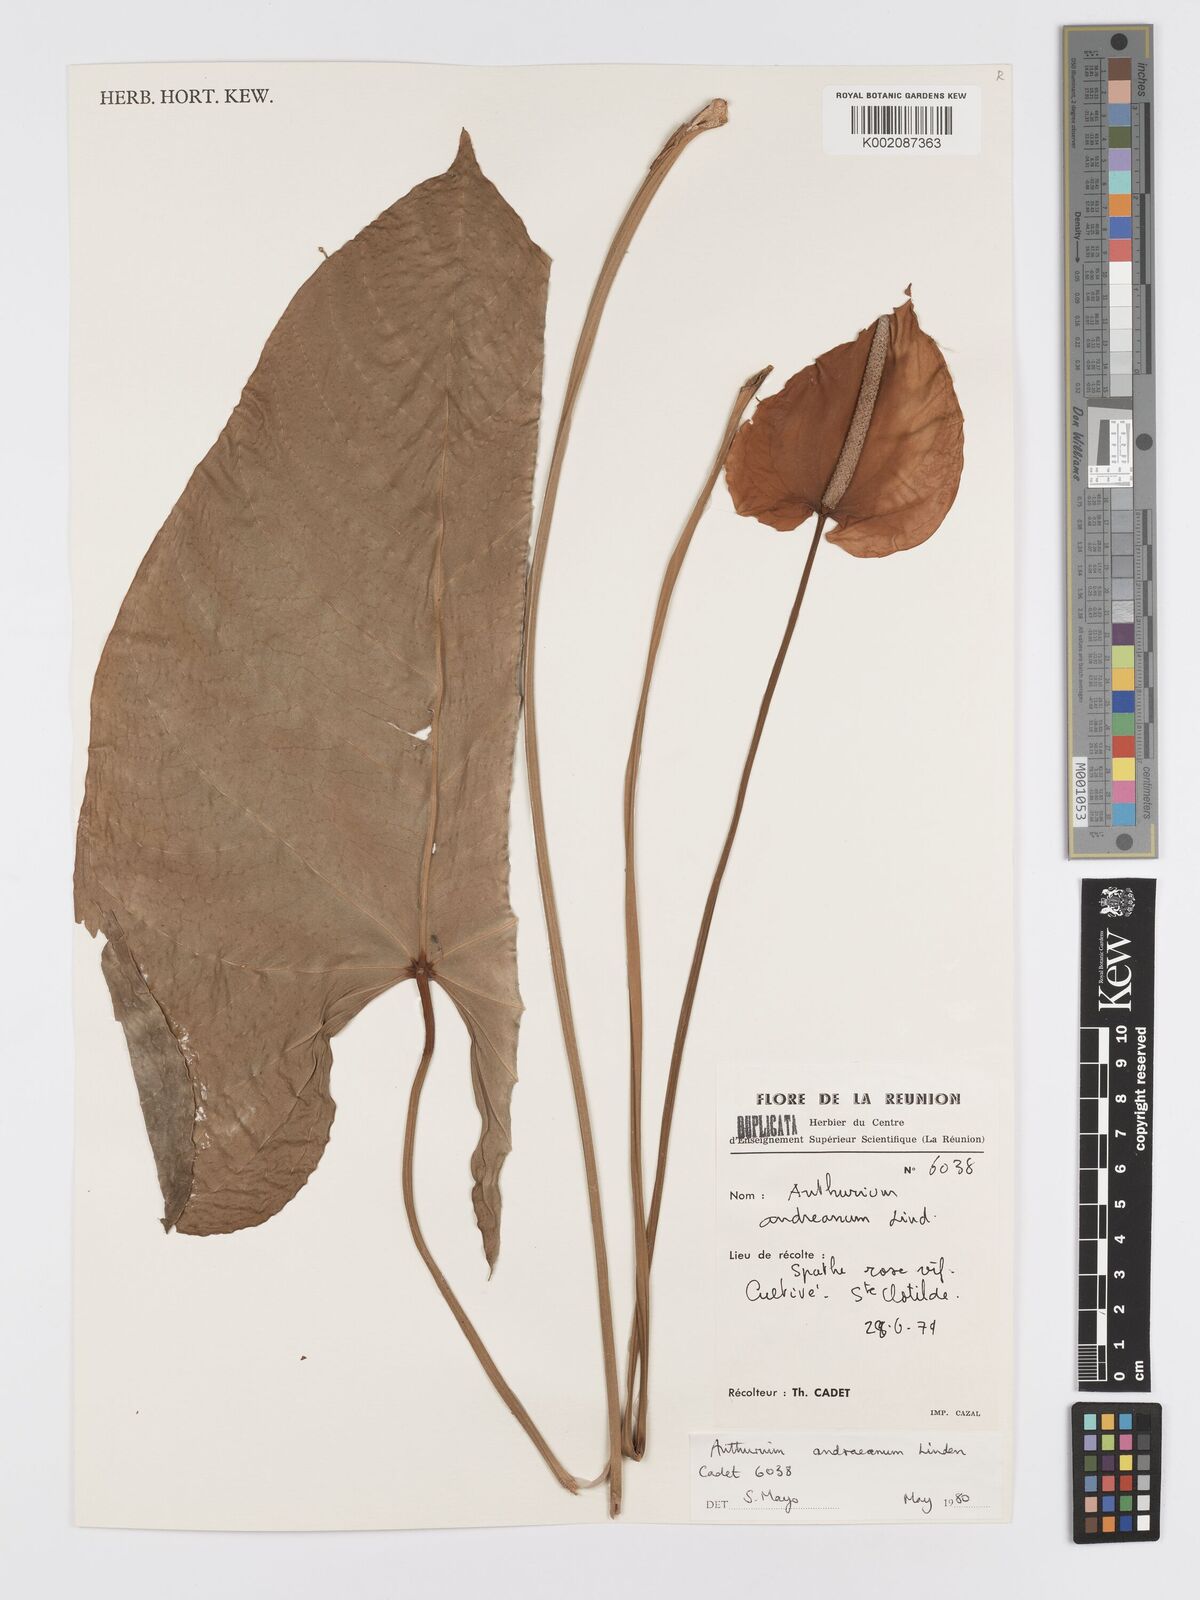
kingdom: Plantae
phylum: Tracheophyta
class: Liliopsida
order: Alismatales
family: Araceae
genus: Anthurium
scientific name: Anthurium andraeanum
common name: Flamingo-flower
